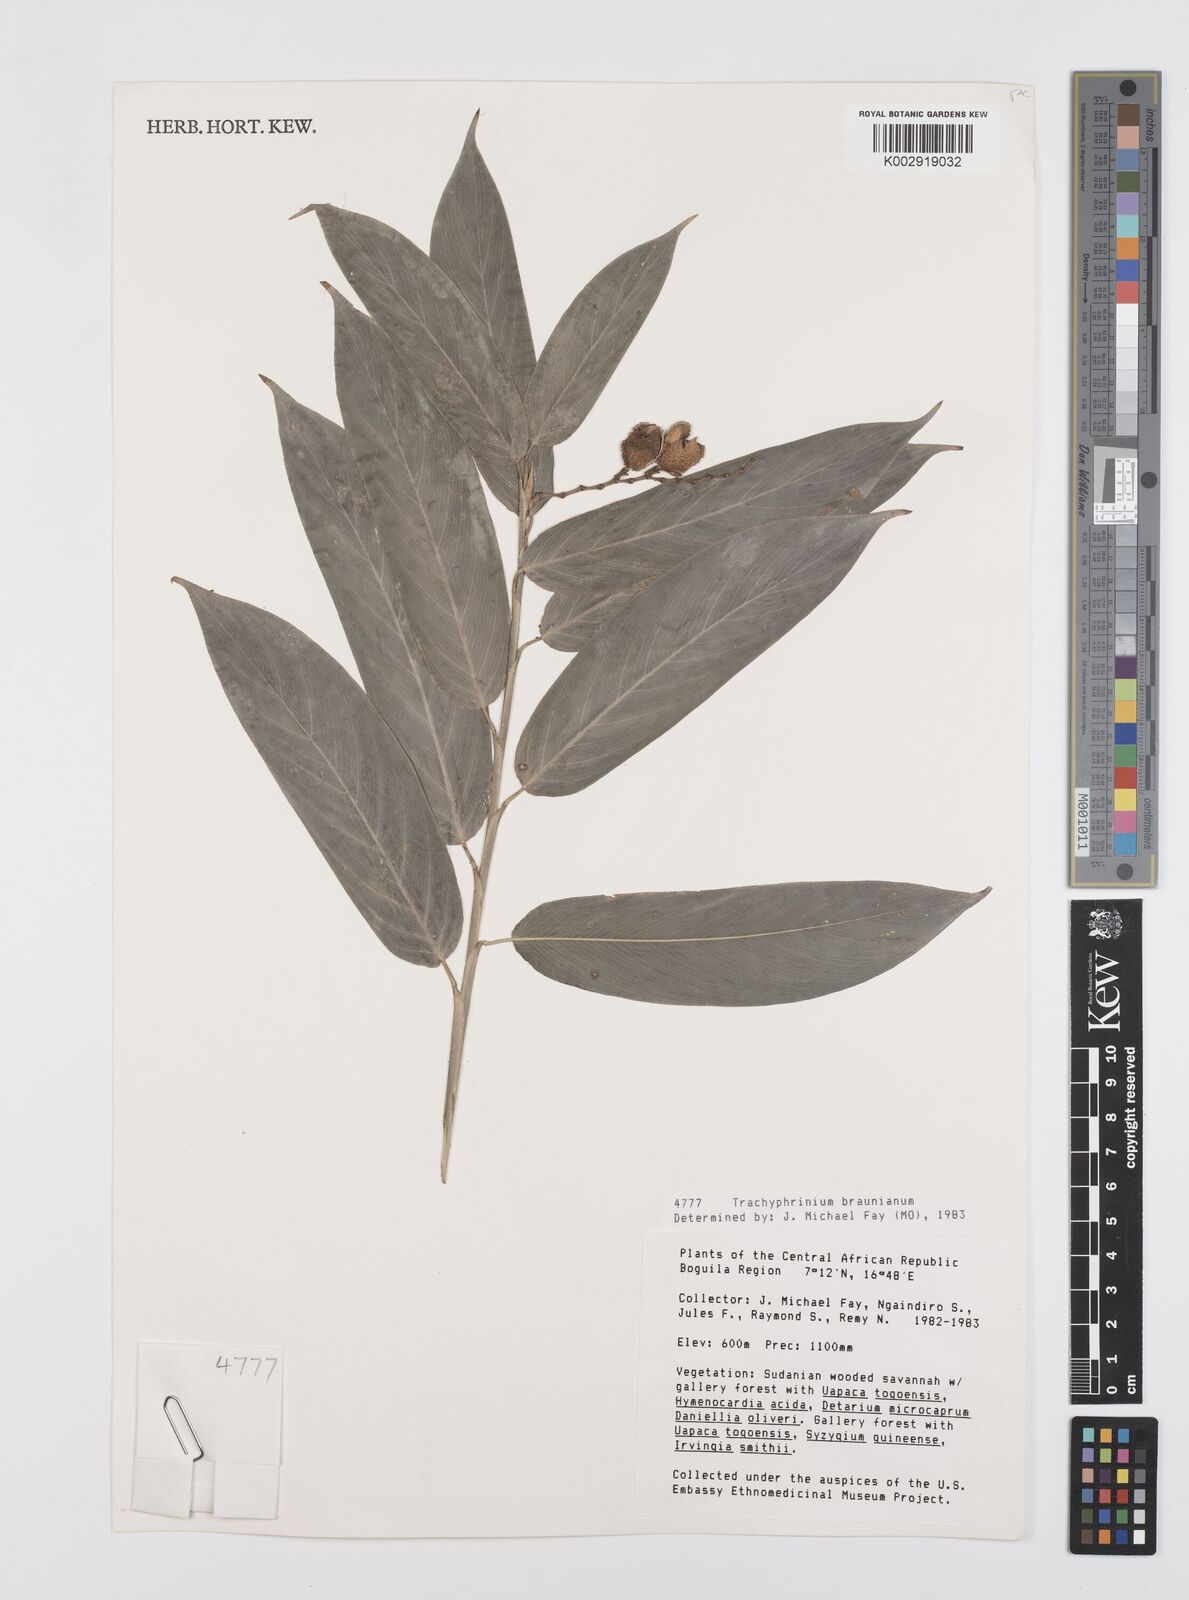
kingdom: Plantae
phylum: Tracheophyta
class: Liliopsida
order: Zingiberales
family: Marantaceae
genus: Trachyphrynium
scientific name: Trachyphrynium braunianum
